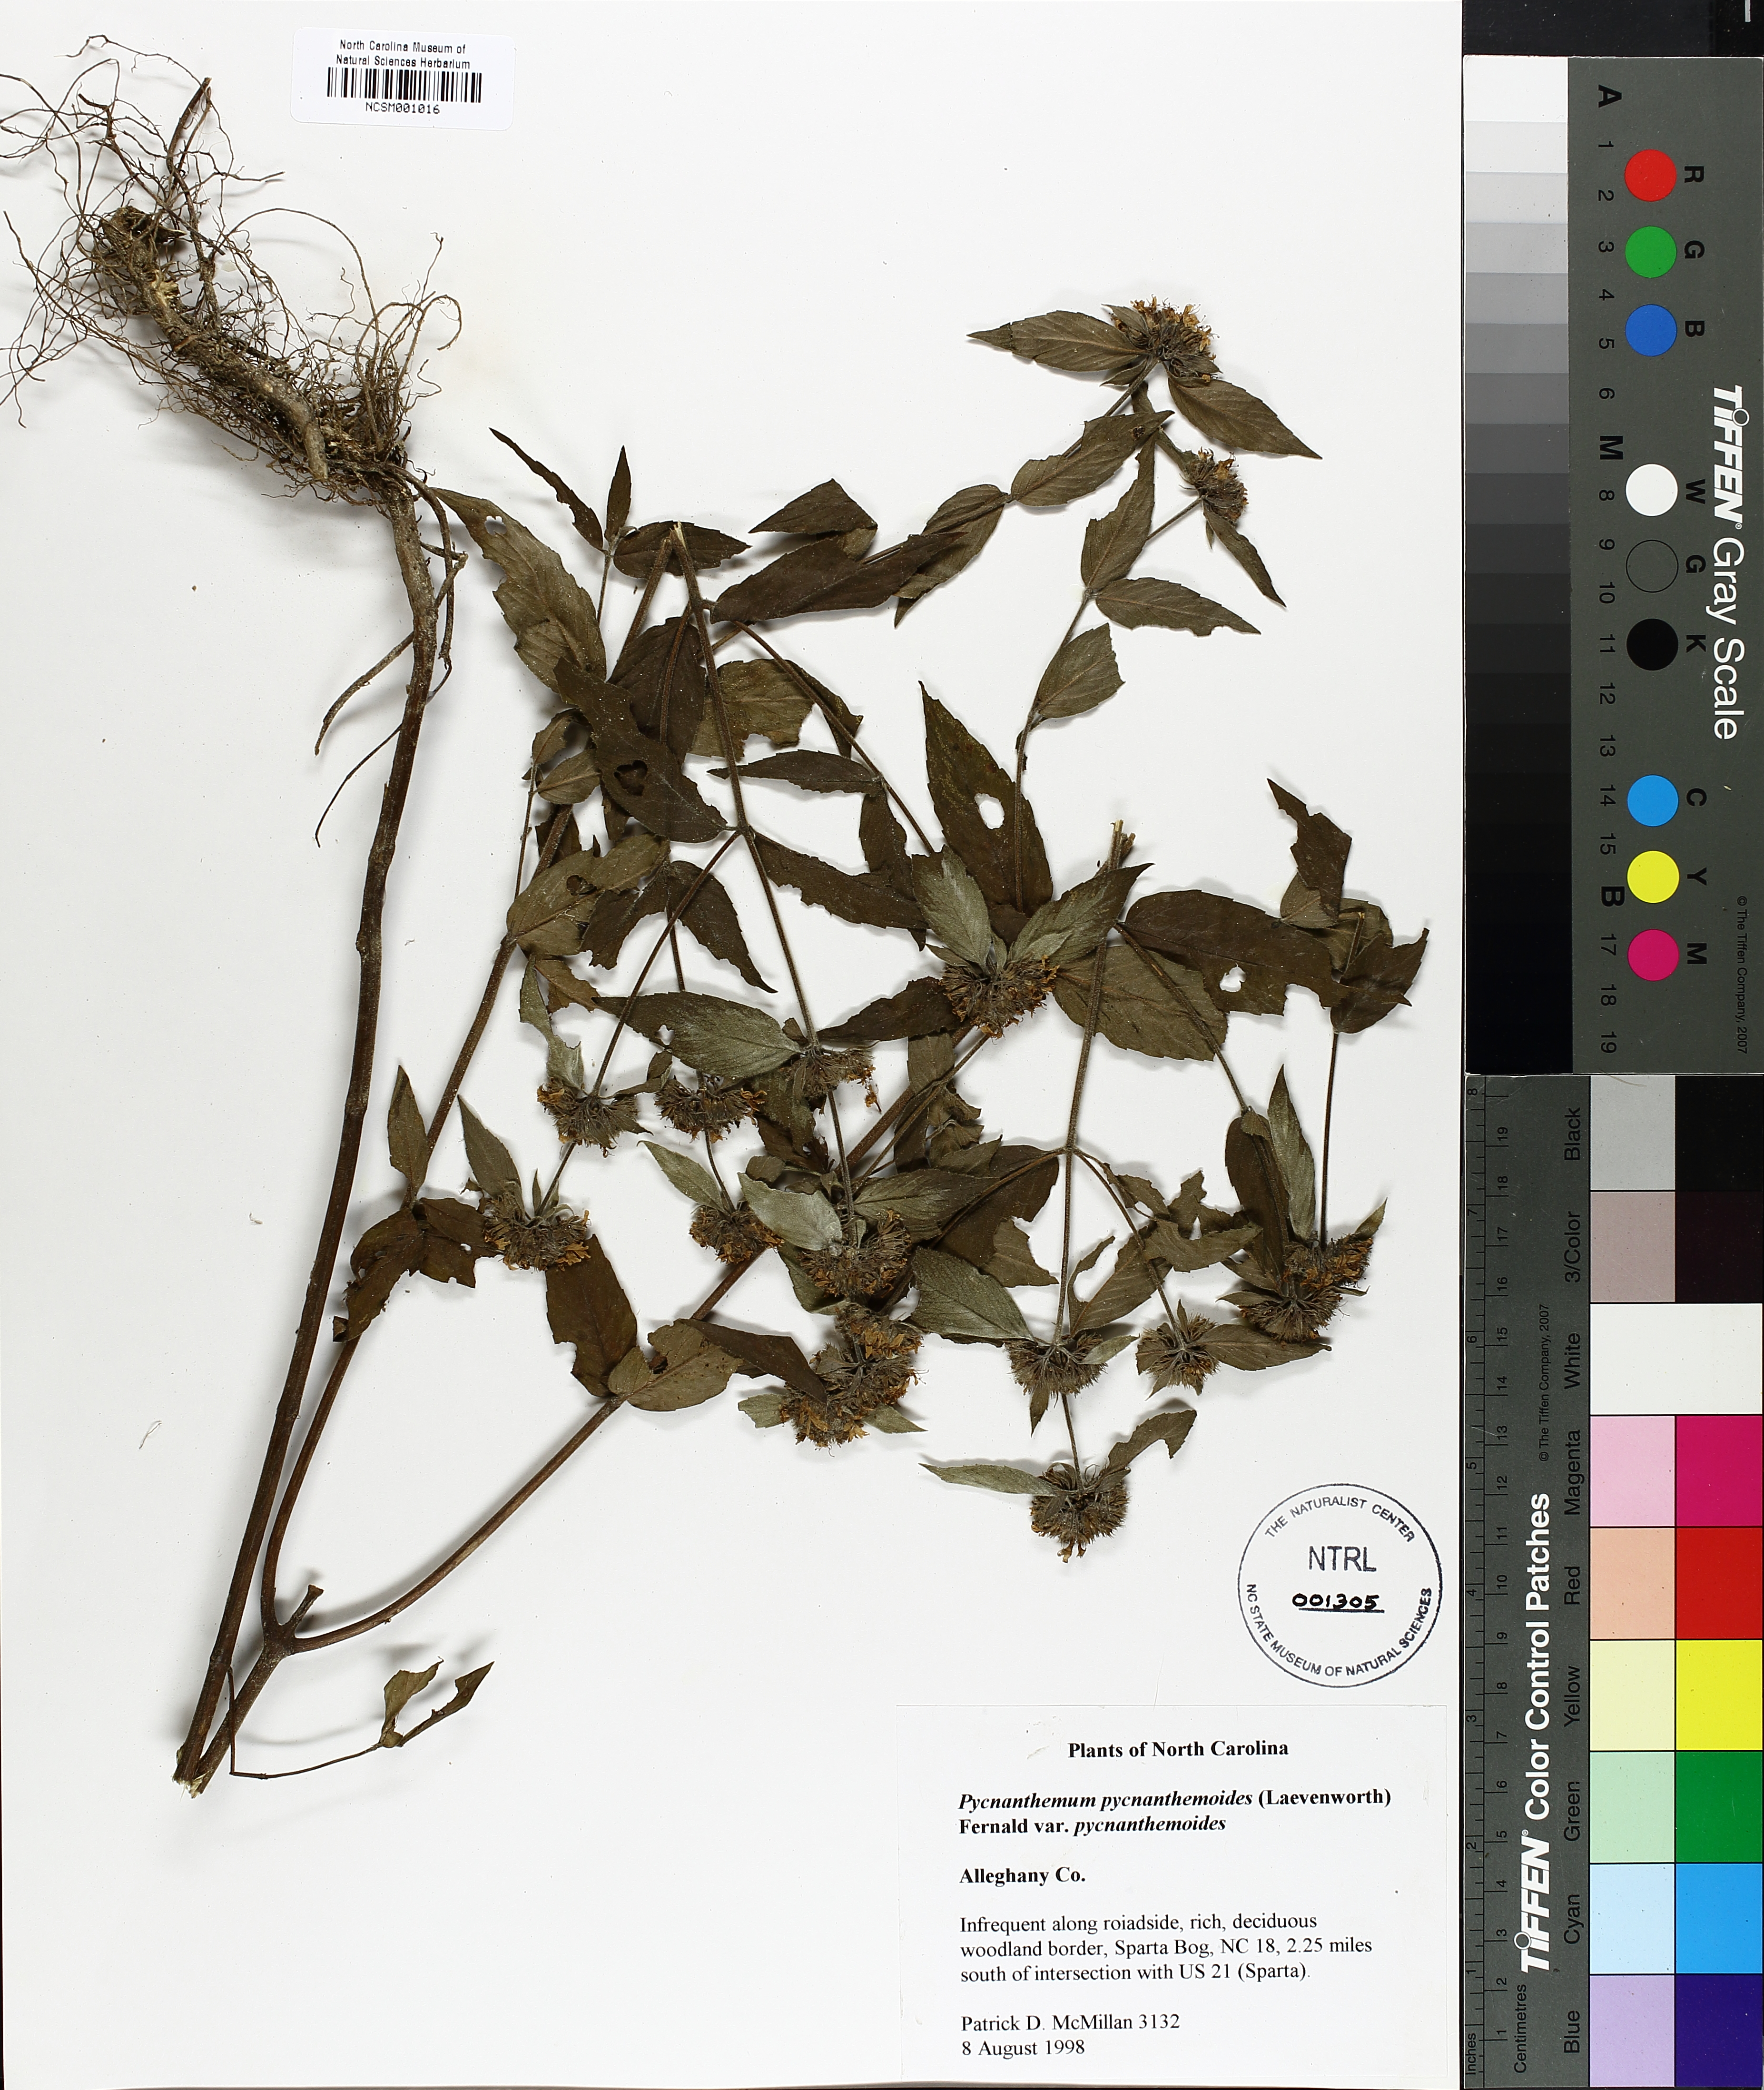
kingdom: Plantae
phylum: Tracheophyta
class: Magnoliopsida
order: Lamiales
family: Lamiaceae
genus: Pycnanthemum
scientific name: Pycnanthemum pycnanthemoides
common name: Southern mountain-mint
